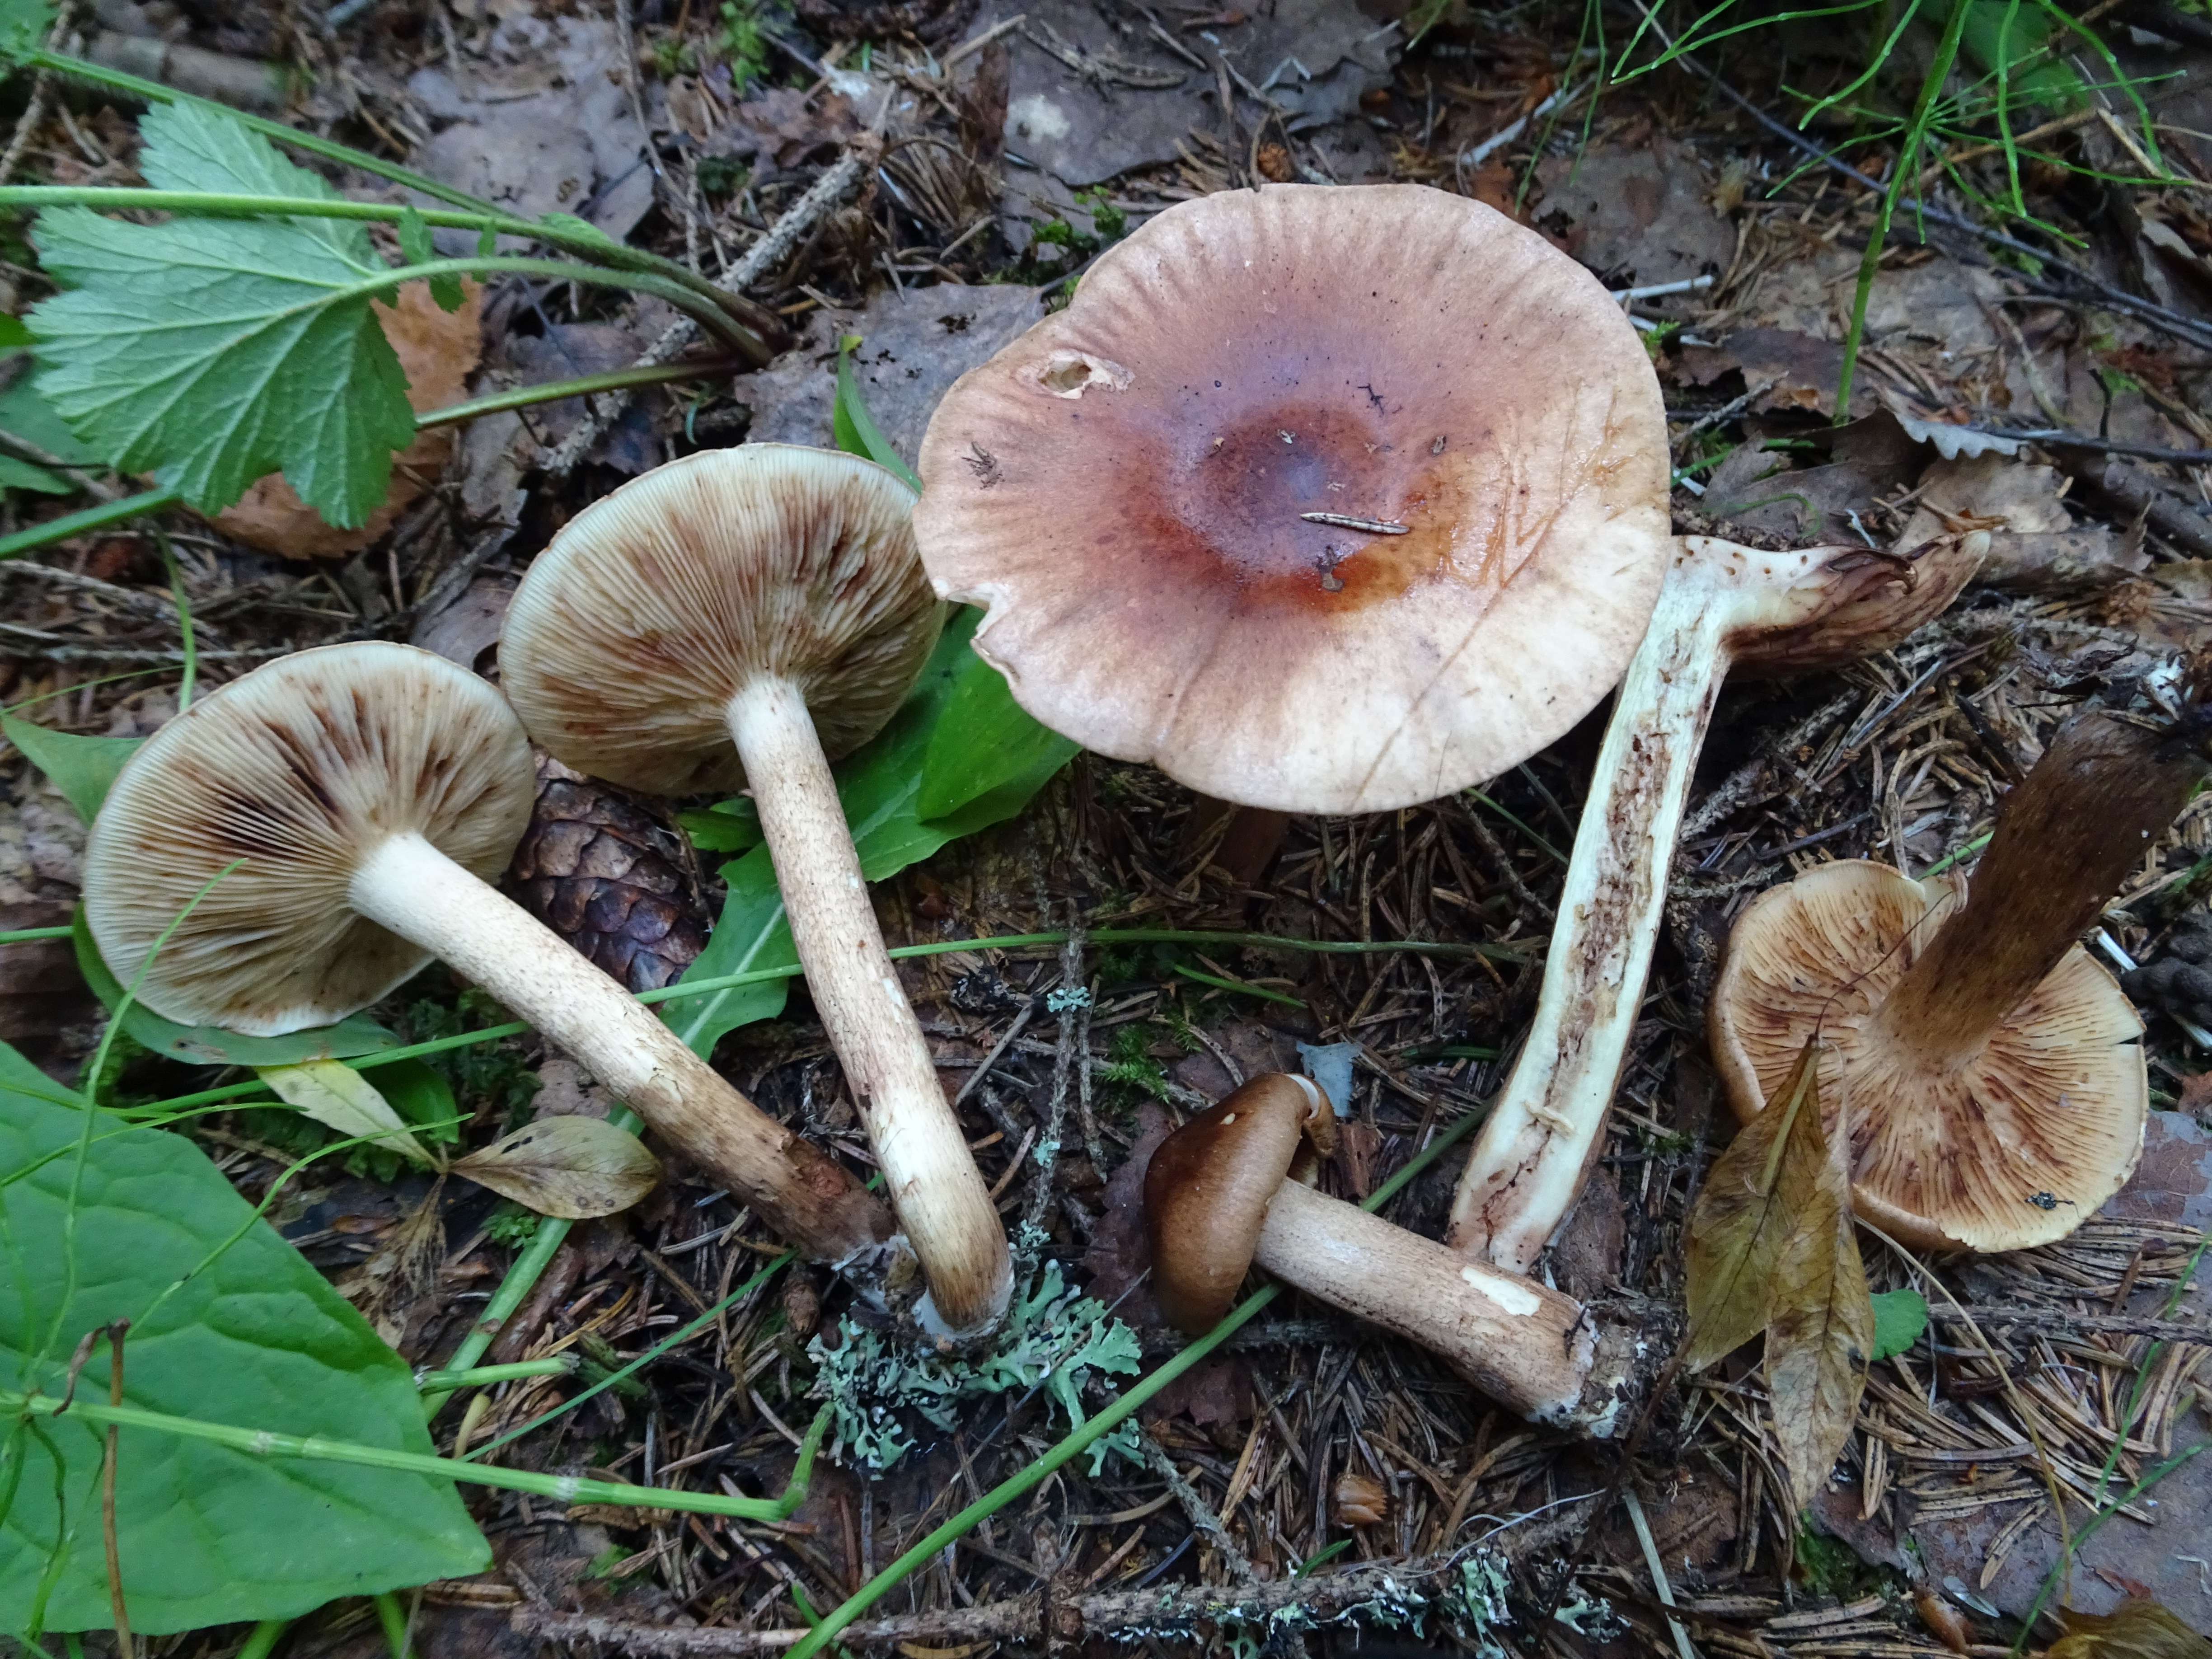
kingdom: Fungi
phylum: Basidiomycota
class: Agaricomycetes
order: Agaricales
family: Tricholomataceae
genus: Tricholoma
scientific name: Tricholoma fulvum
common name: Birch knight
